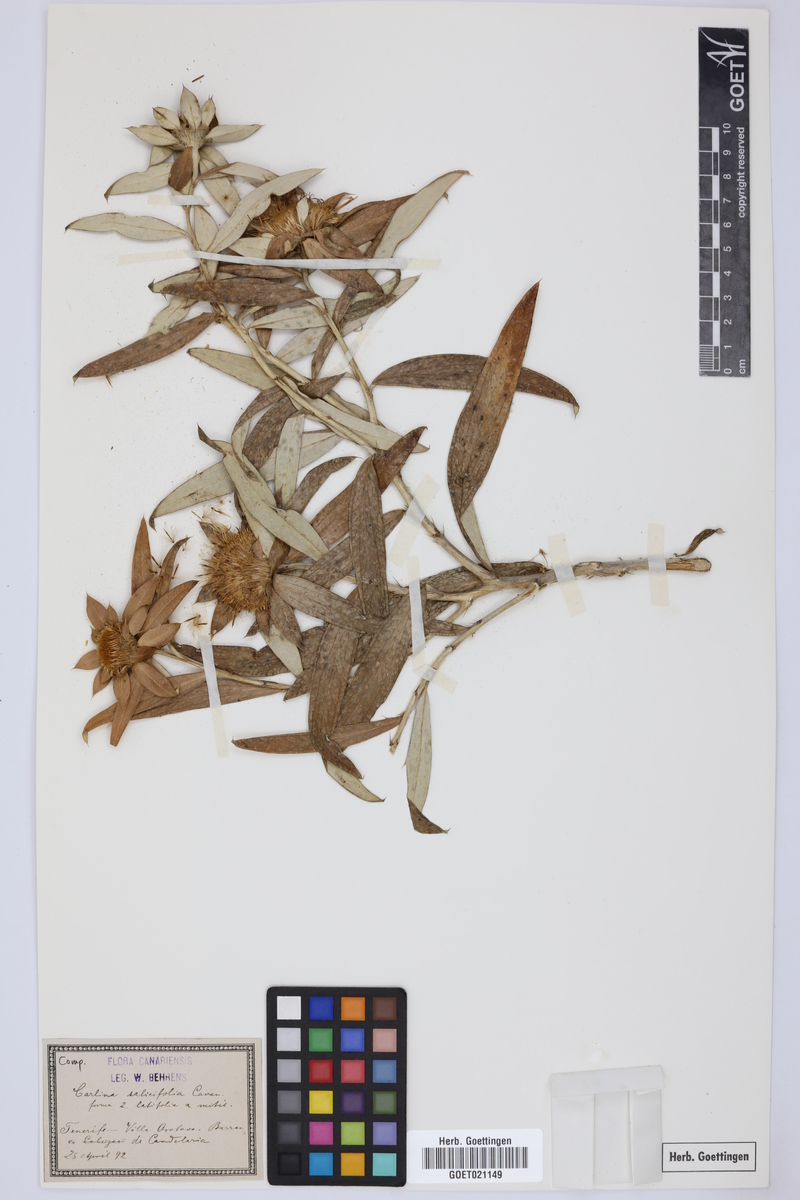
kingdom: Plantae
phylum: Tracheophyta
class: Magnoliopsida
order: Asterales
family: Asteraceae
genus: Carlina
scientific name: Carlina salicifolia
